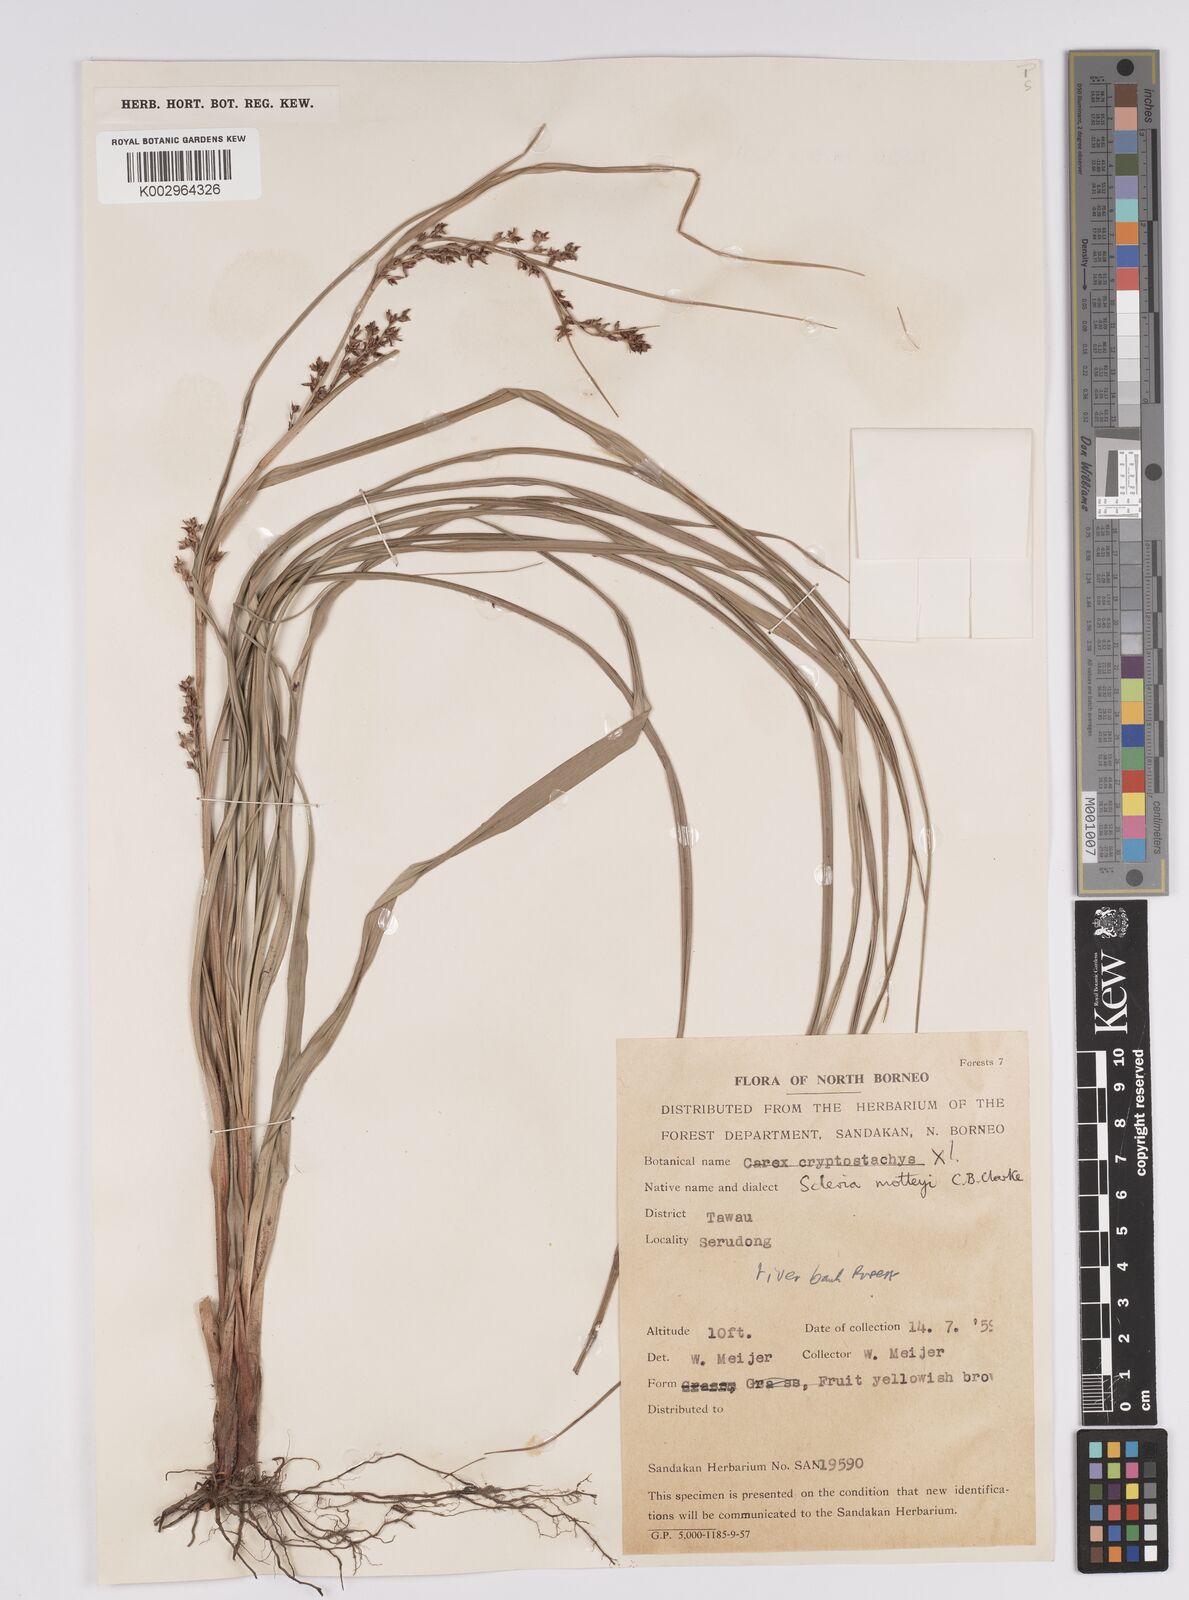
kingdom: Plantae
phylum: Tracheophyta
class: Liliopsida
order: Poales
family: Cyperaceae
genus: Scleria
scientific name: Scleria motleyi
